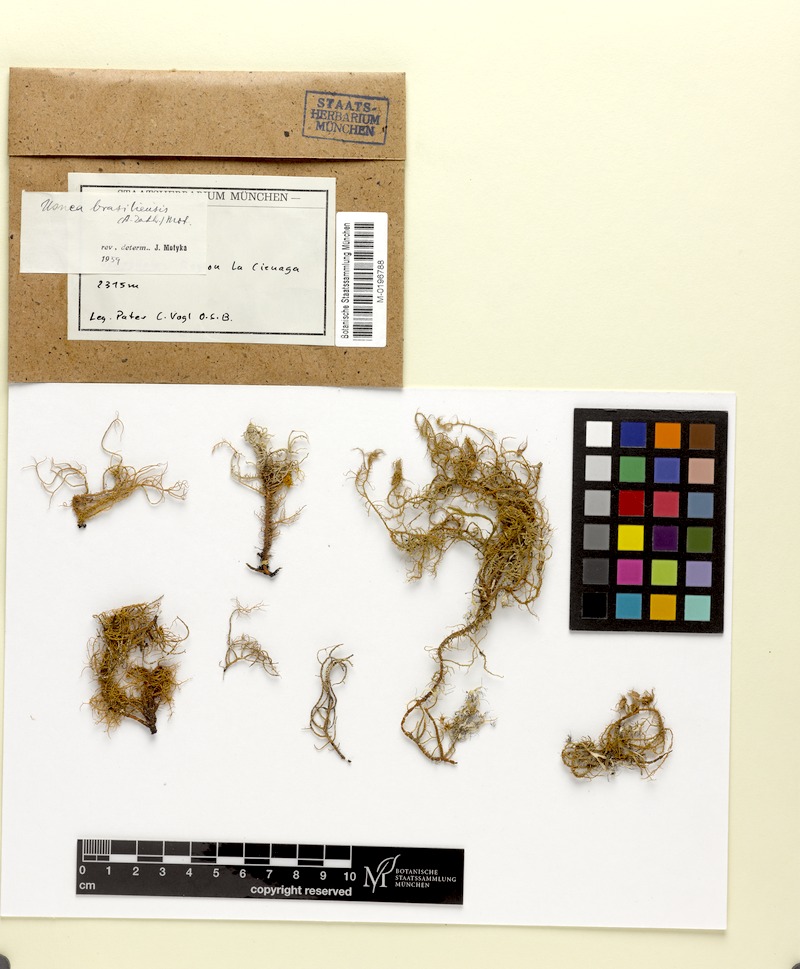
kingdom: Fungi
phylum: Ascomycota
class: Lecanoromycetes
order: Lecanorales
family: Parmeliaceae
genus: Usnea
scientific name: Usnea cornuta
